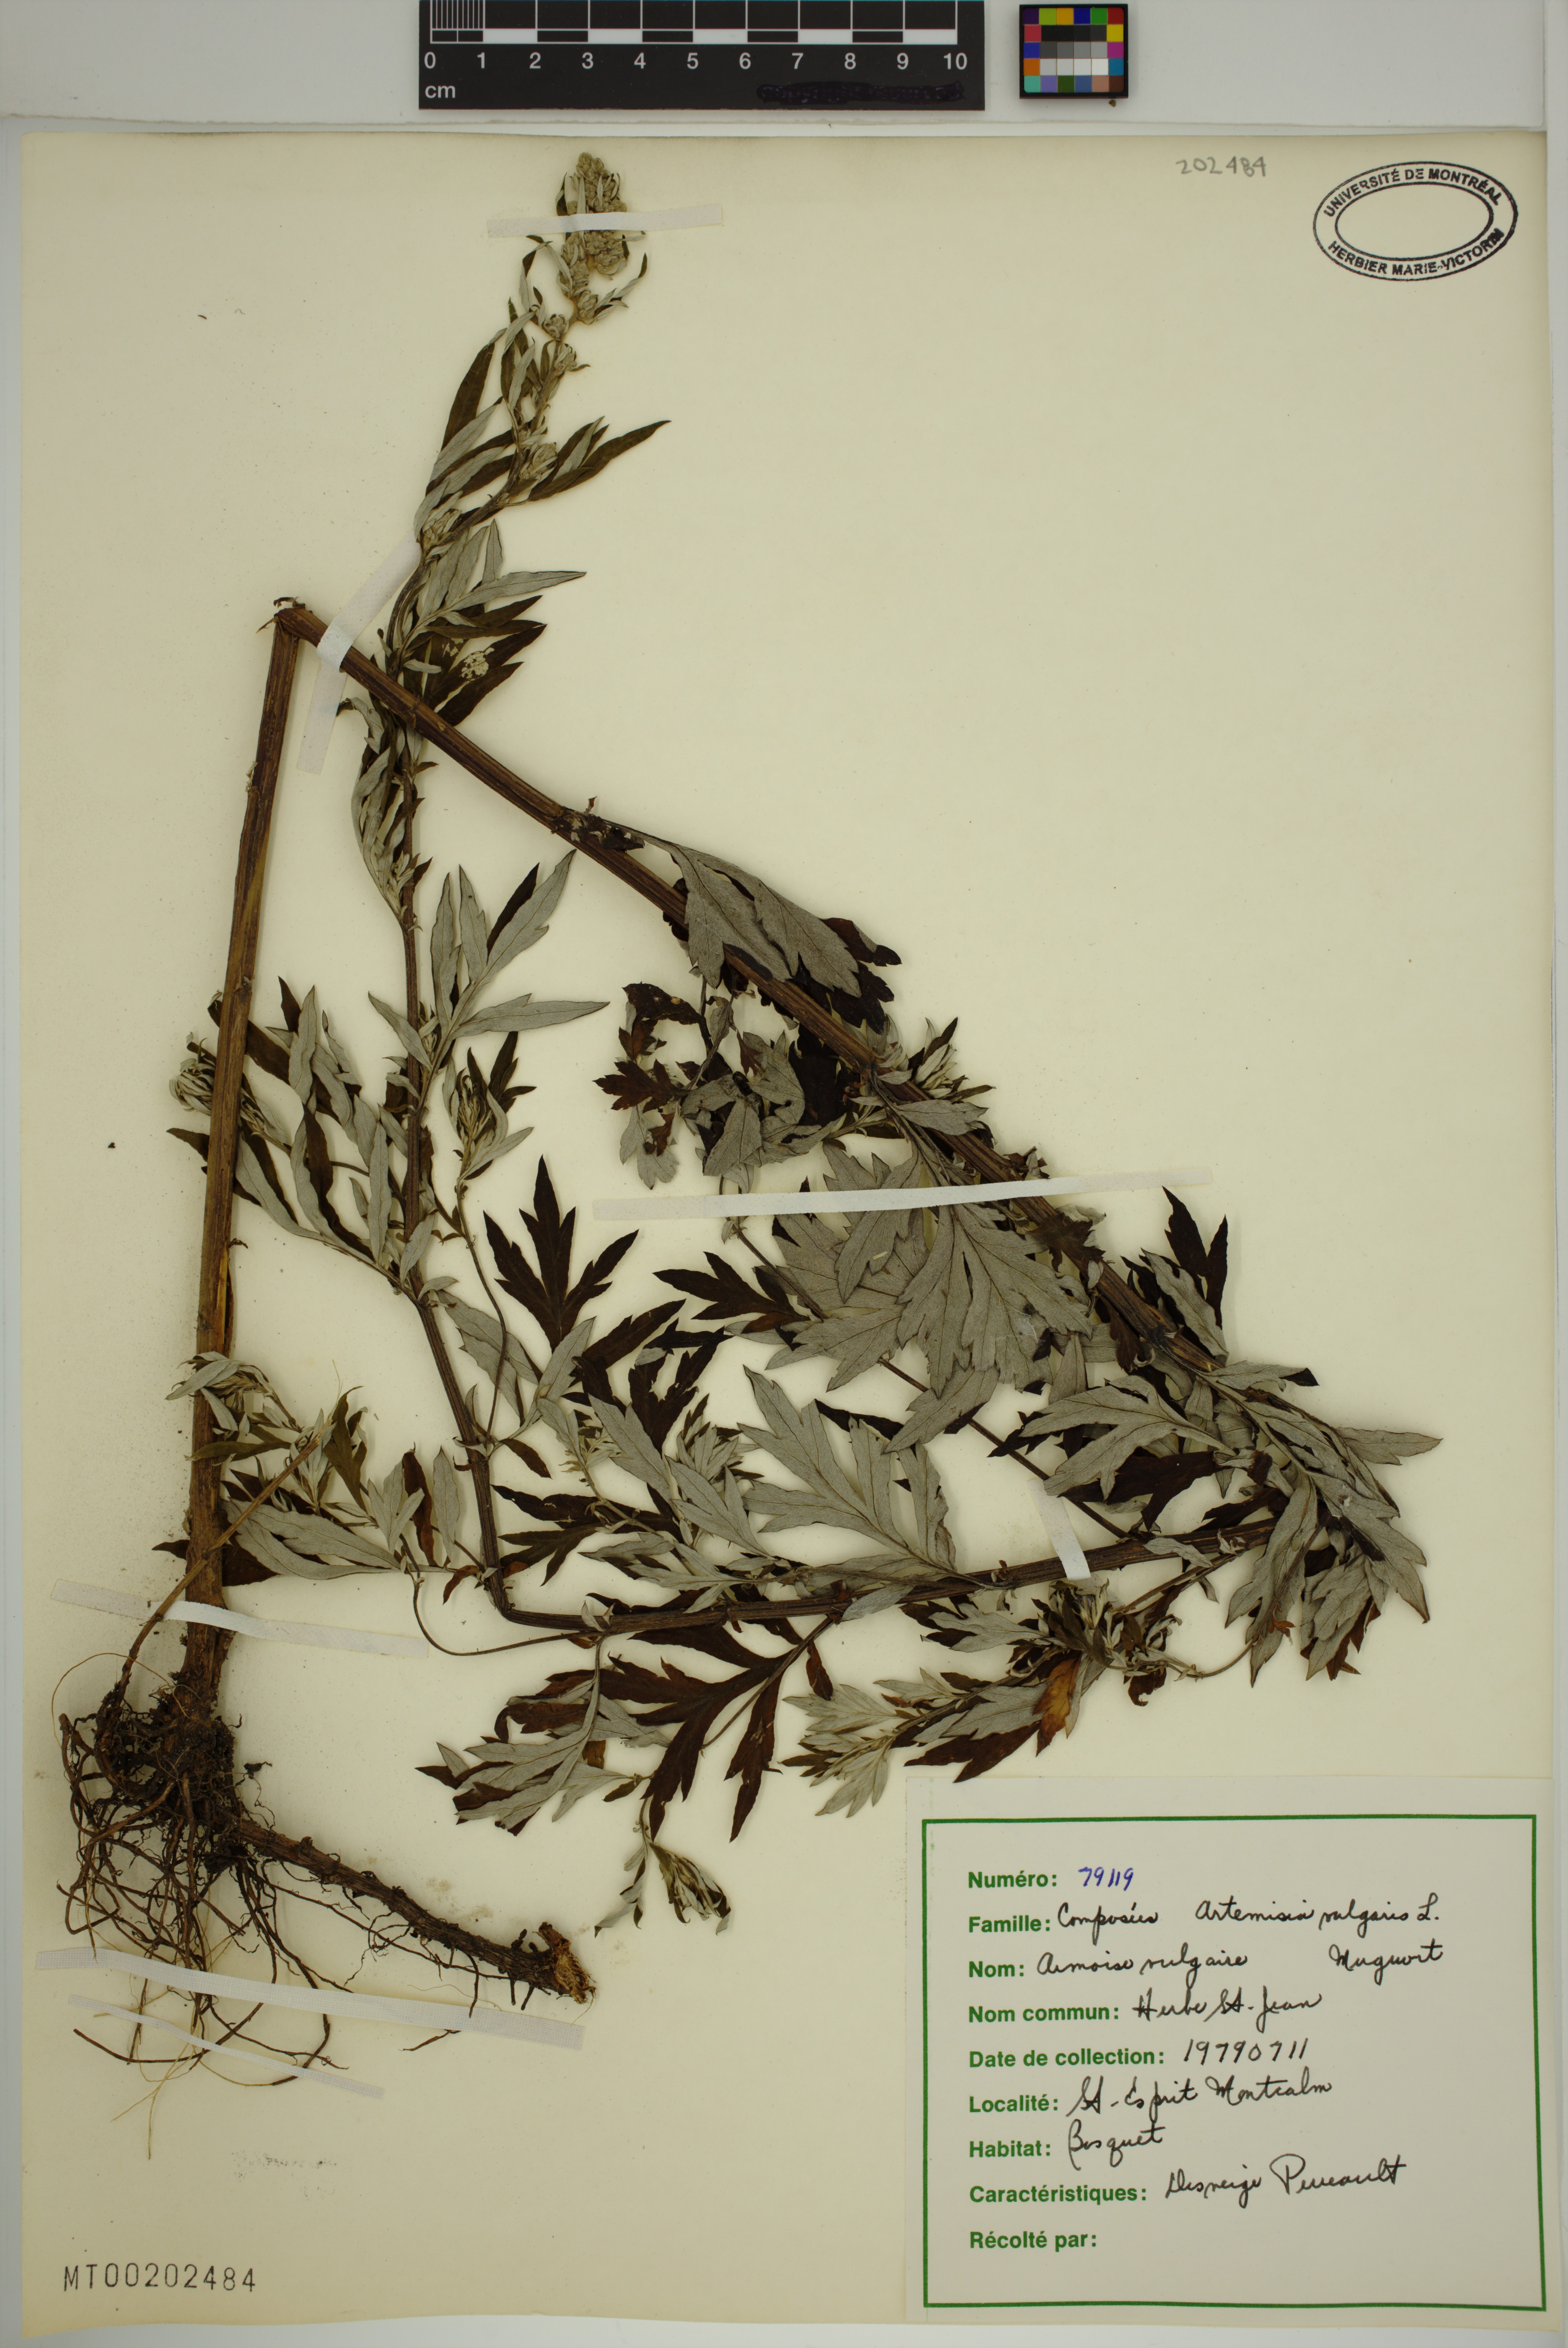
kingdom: Plantae
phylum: Tracheophyta
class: Magnoliopsida
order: Asterales
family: Asteraceae
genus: Artemisia
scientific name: Artemisia vulgaris
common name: Mugwort
